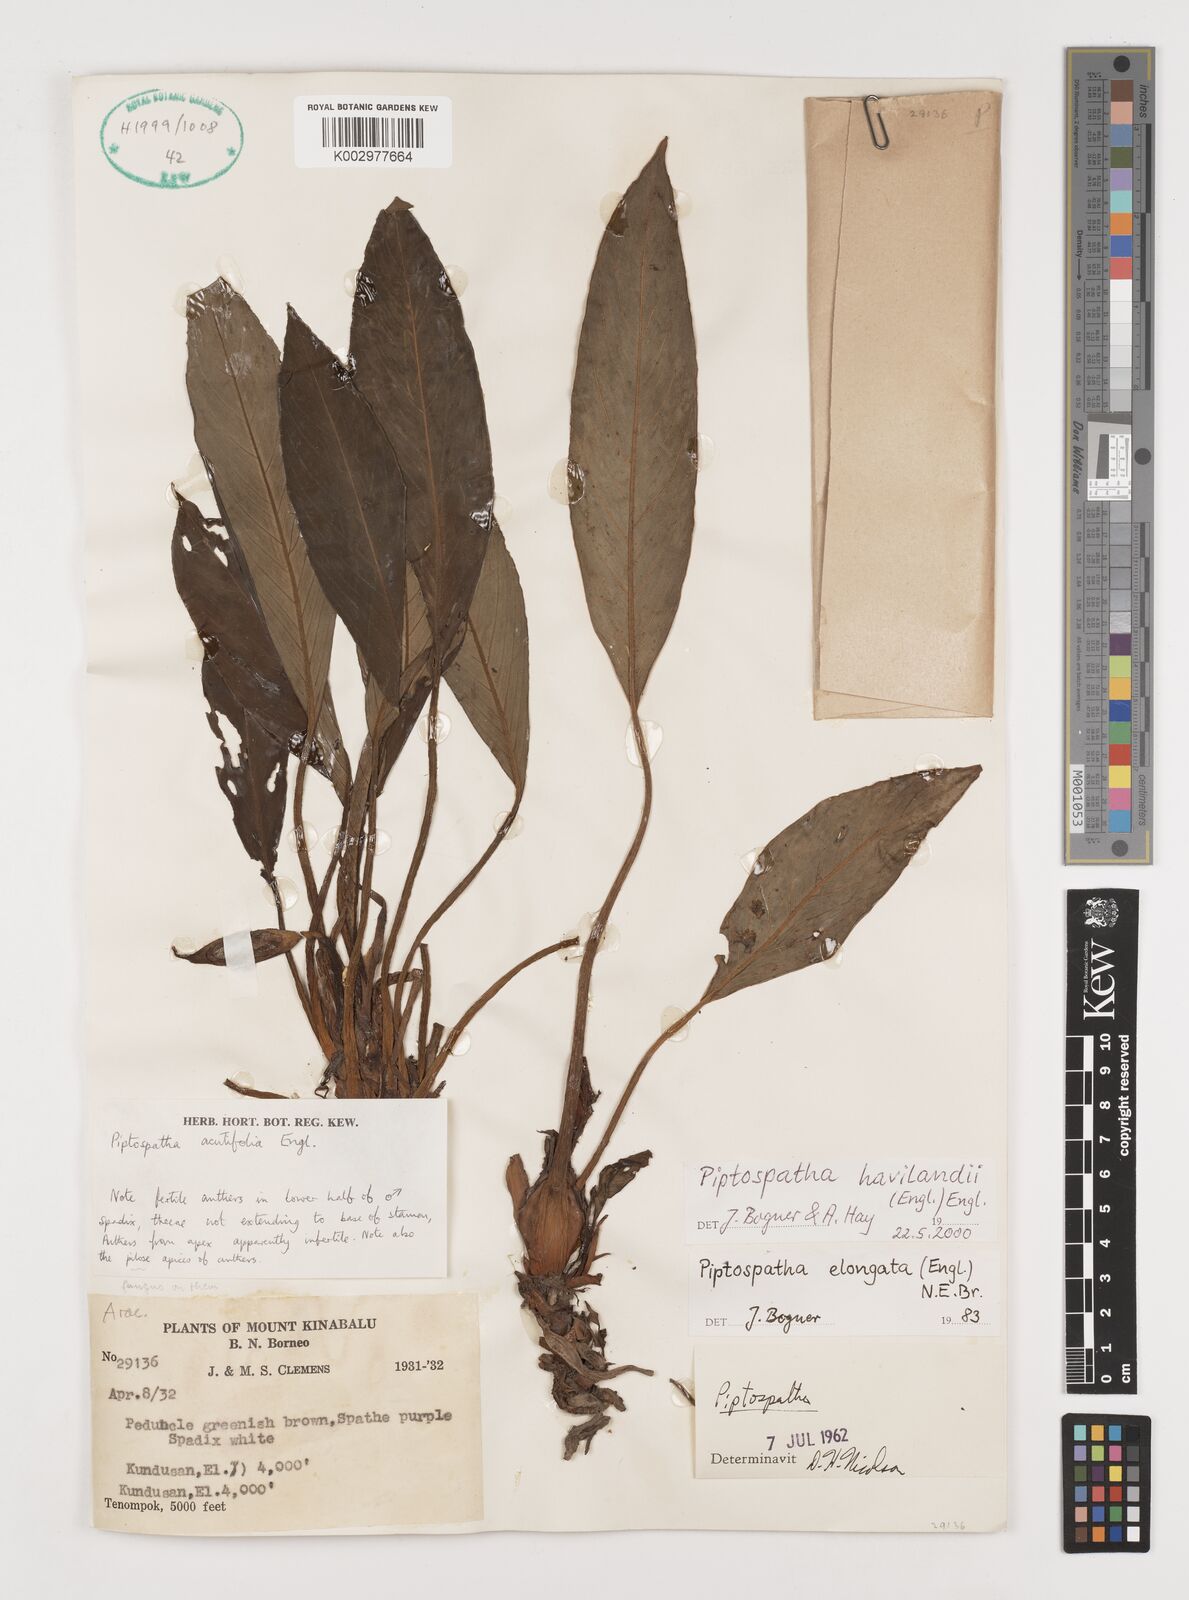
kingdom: Plantae
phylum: Tracheophyta
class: Liliopsida
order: Alismatales
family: Araceae
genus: Ooia
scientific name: Ooia grabowskii
